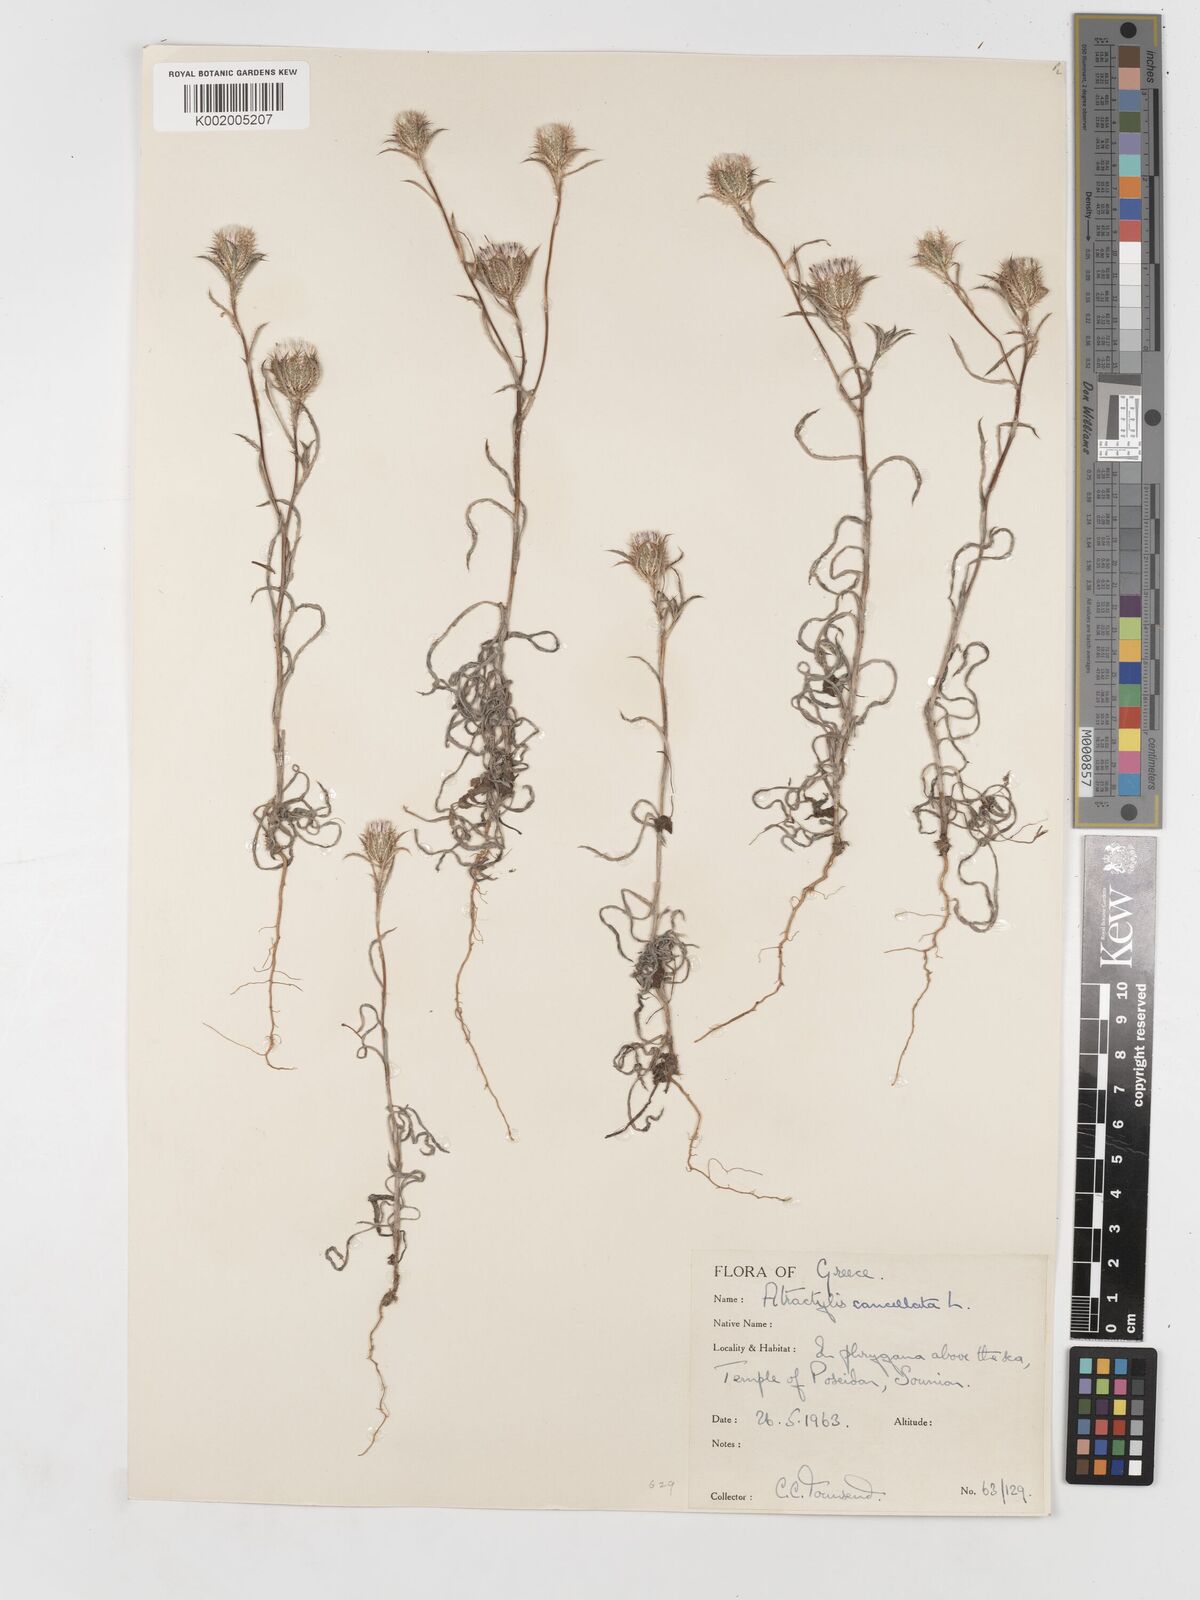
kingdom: Plantae
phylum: Tracheophyta
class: Magnoliopsida
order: Asterales
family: Asteraceae
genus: Atractylis
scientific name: Atractylis cancellata
